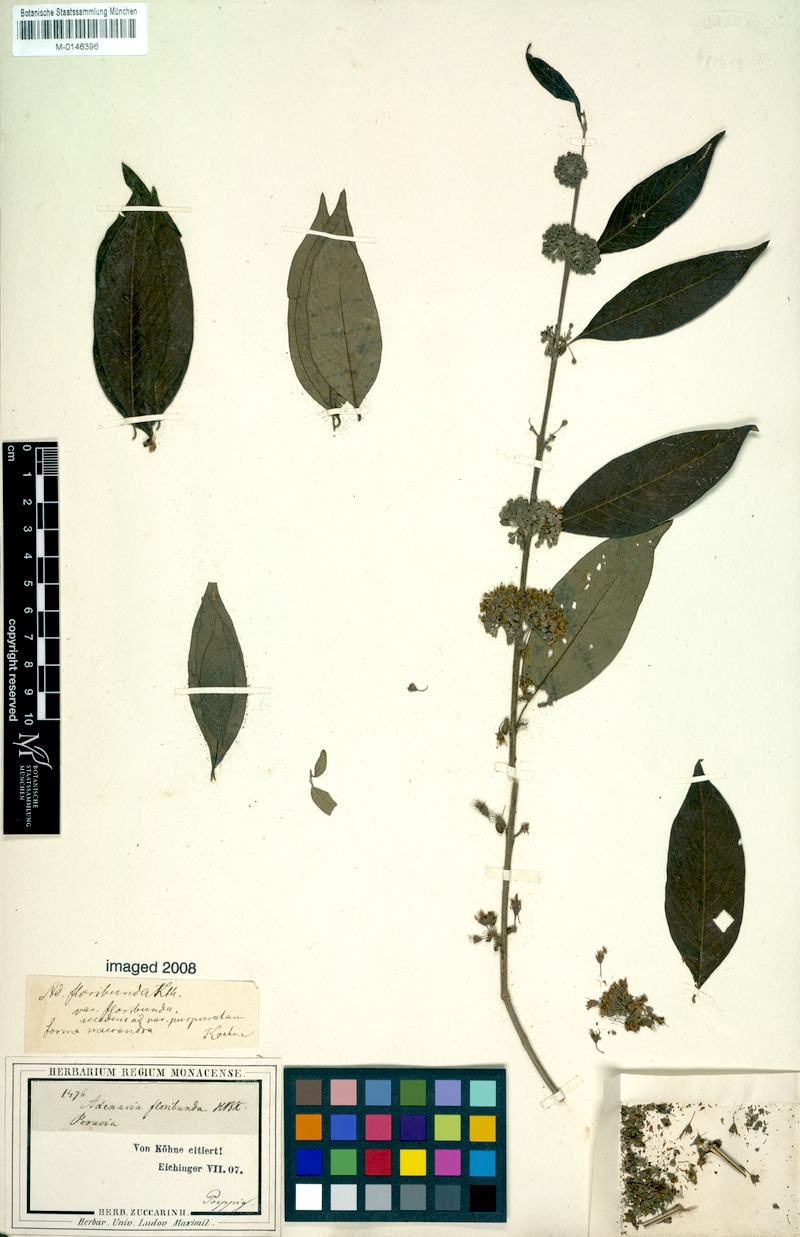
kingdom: Plantae
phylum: Tracheophyta
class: Magnoliopsida
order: Myrtales
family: Lythraceae
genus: Adenaria
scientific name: Adenaria floribunda
